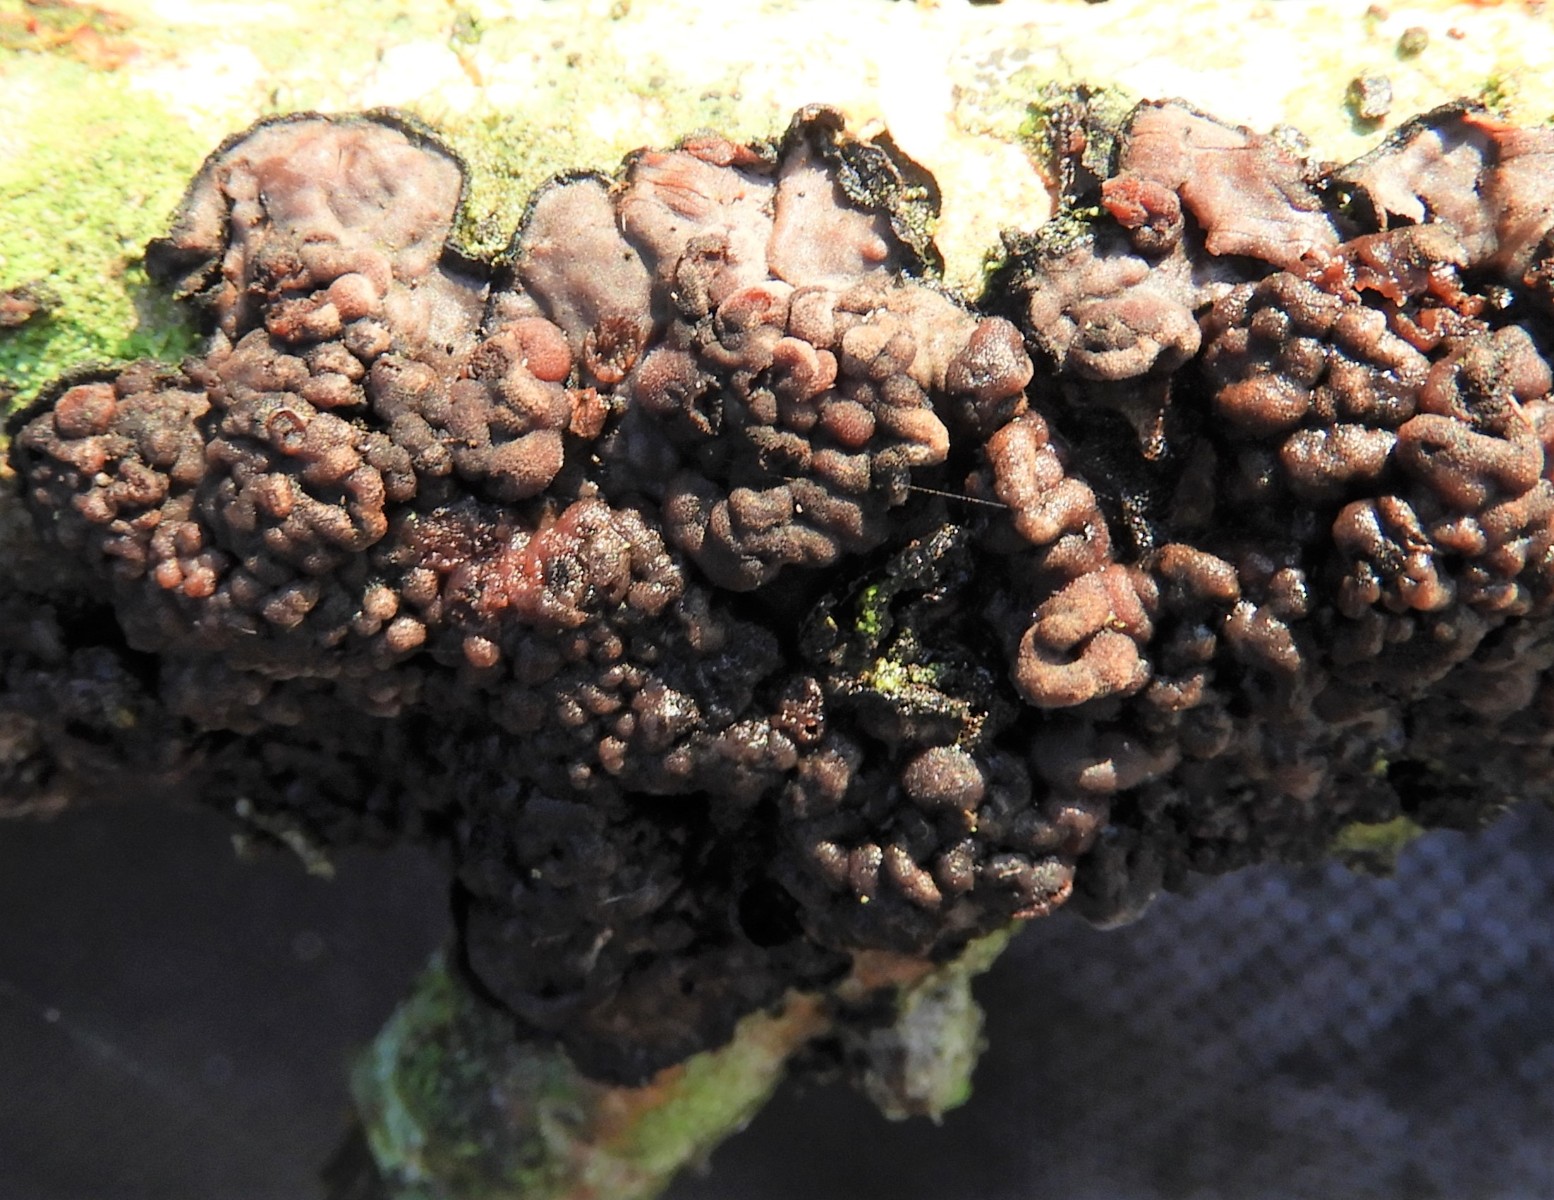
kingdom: Fungi
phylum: Basidiomycota
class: Pucciniomycetes
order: Platygloeales
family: Platygloeaceae
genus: Platygloea
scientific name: Platygloea
